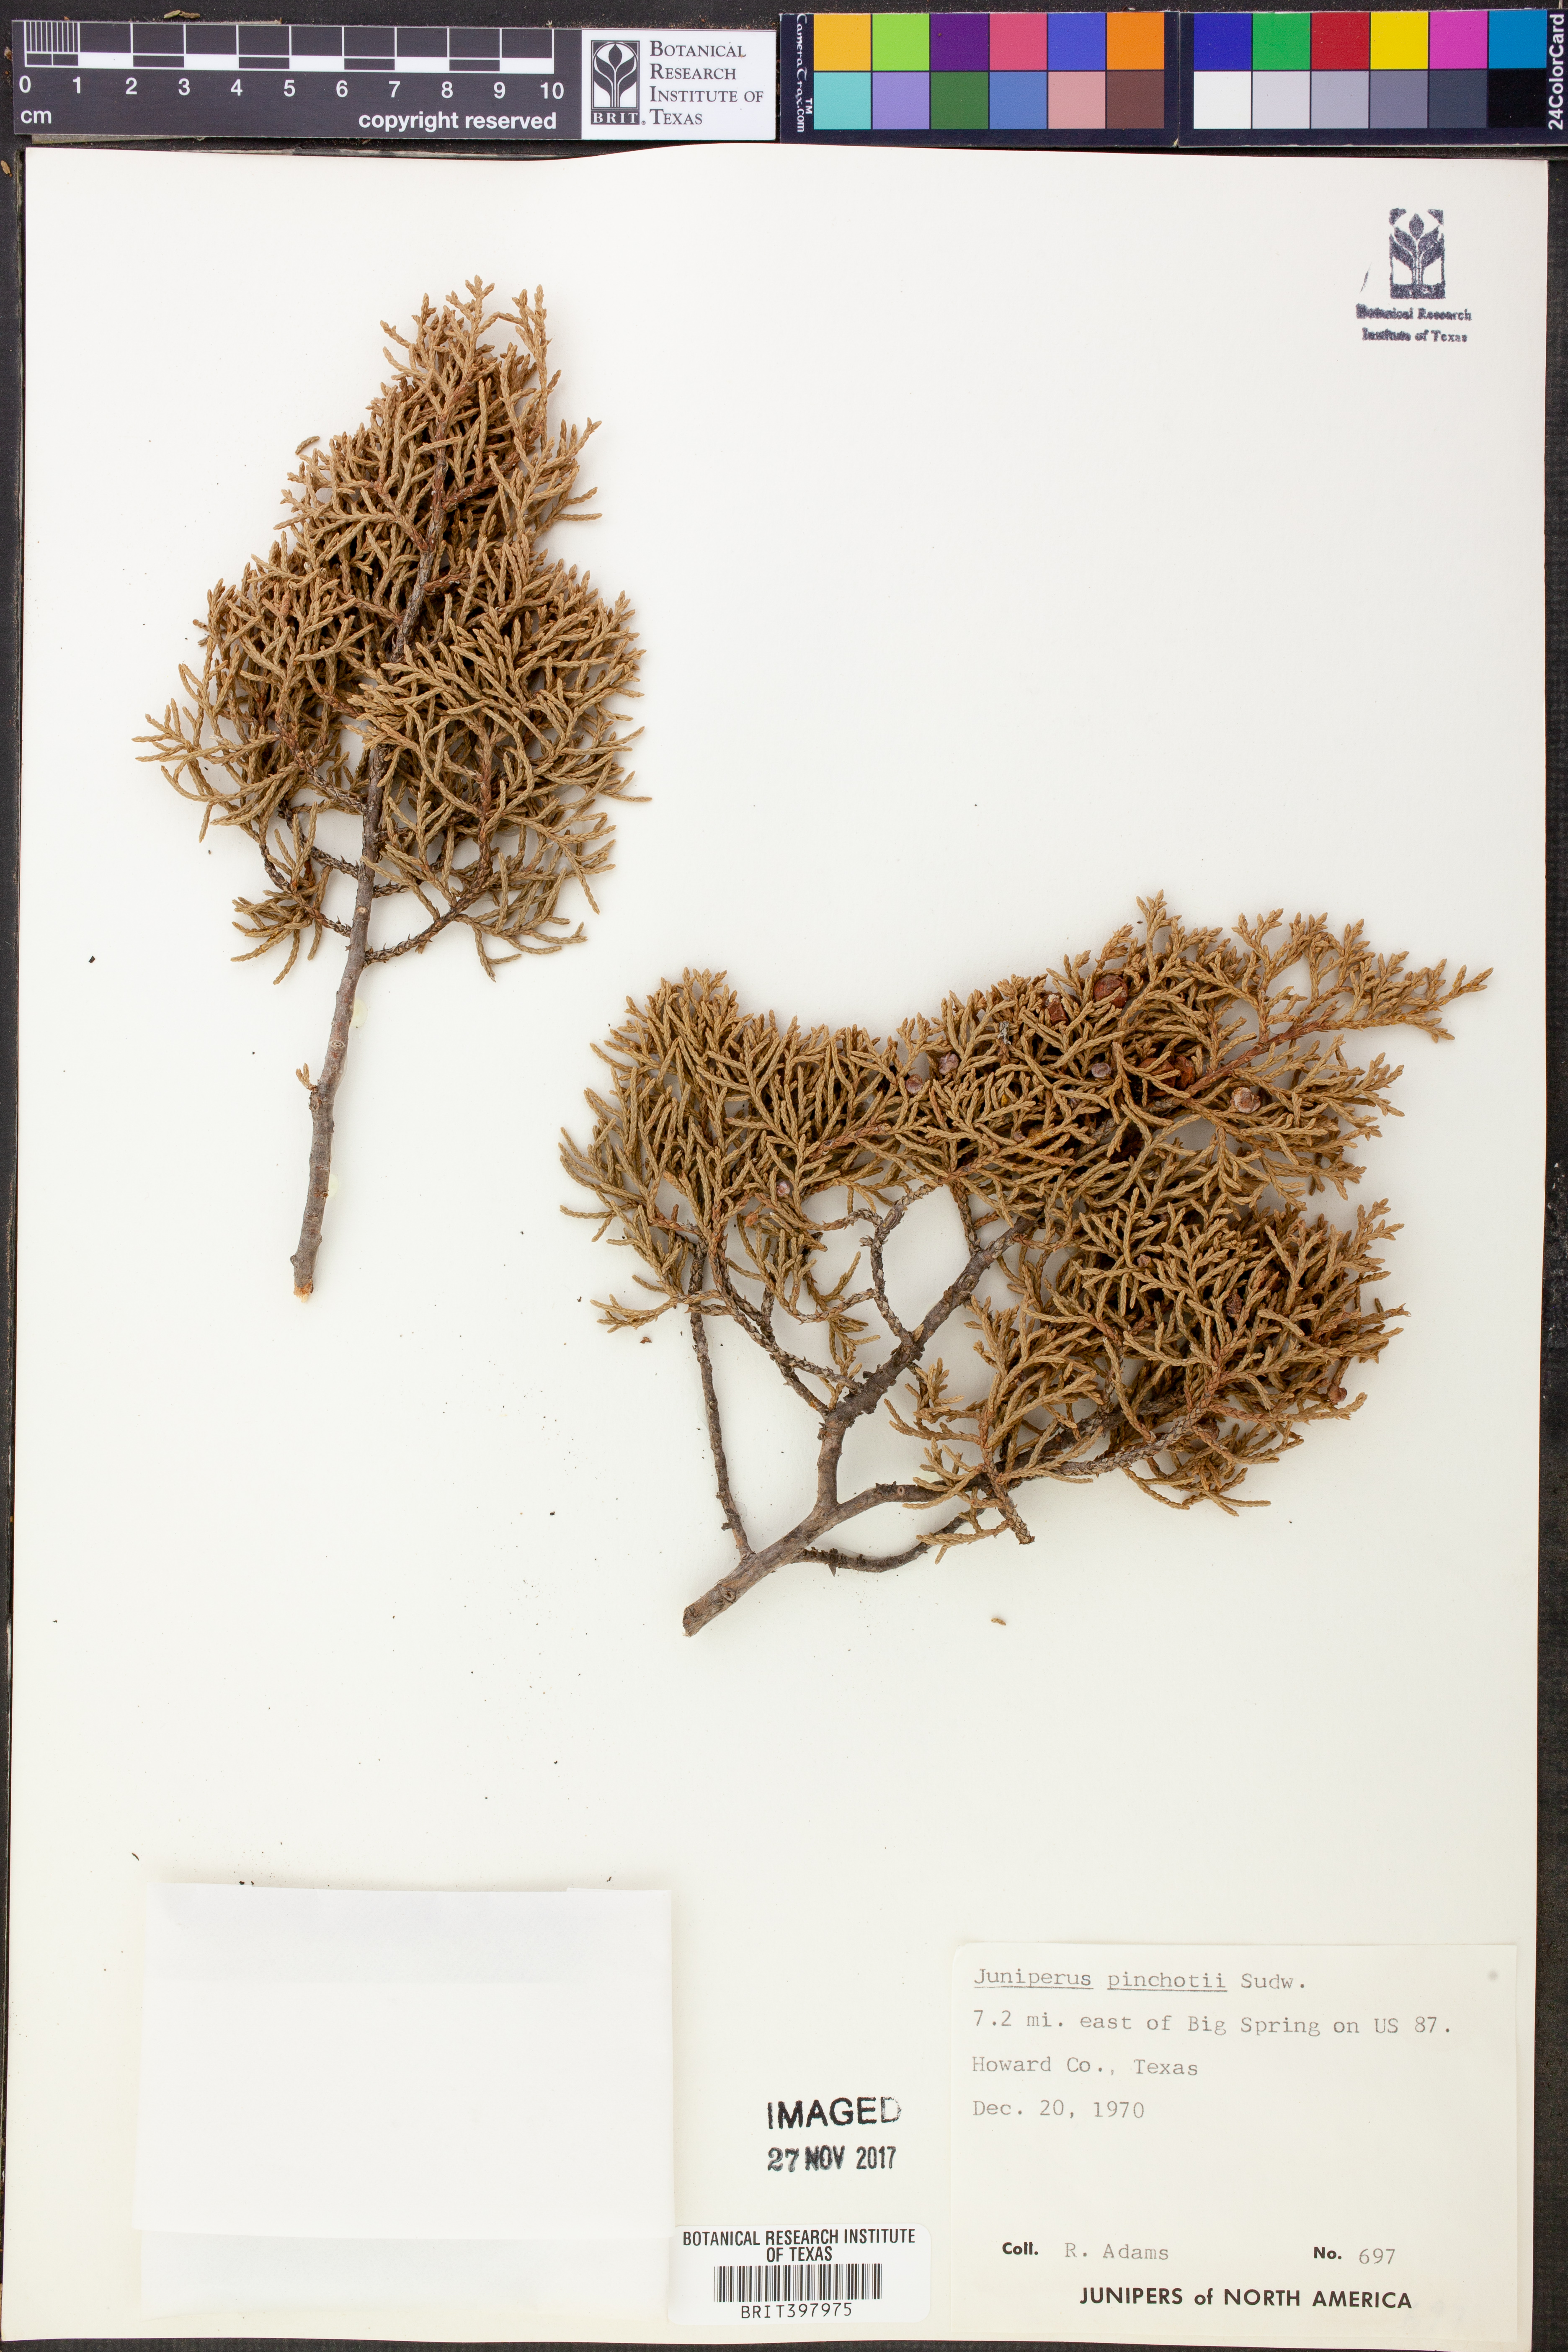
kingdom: Plantae
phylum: Tracheophyta
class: Pinopsida
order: Pinales
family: Cupressaceae
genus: Juniperus
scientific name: Juniperus pinchotii
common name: Pinchot juniper
